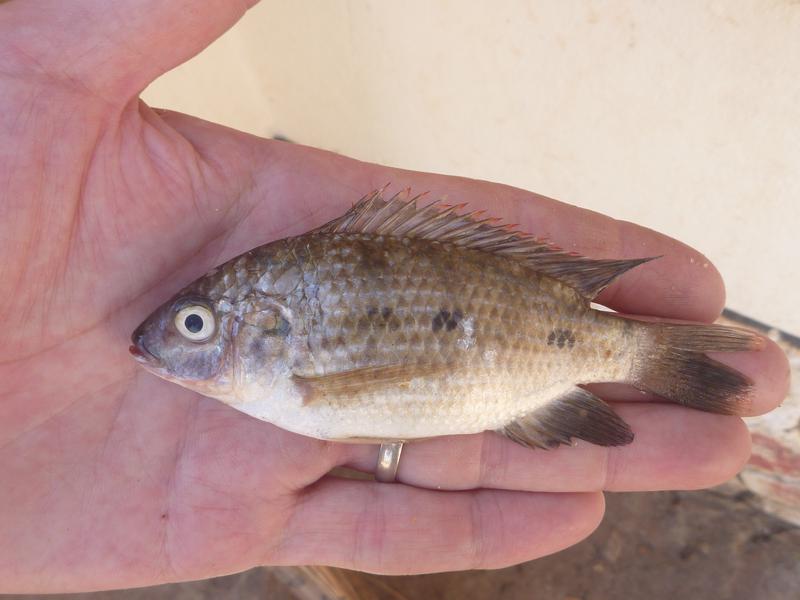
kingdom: Animalia
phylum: Chordata
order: Perciformes
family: Cichlidae
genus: Oreochromis
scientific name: Oreochromis shiranus
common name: Chilwa tilapia
